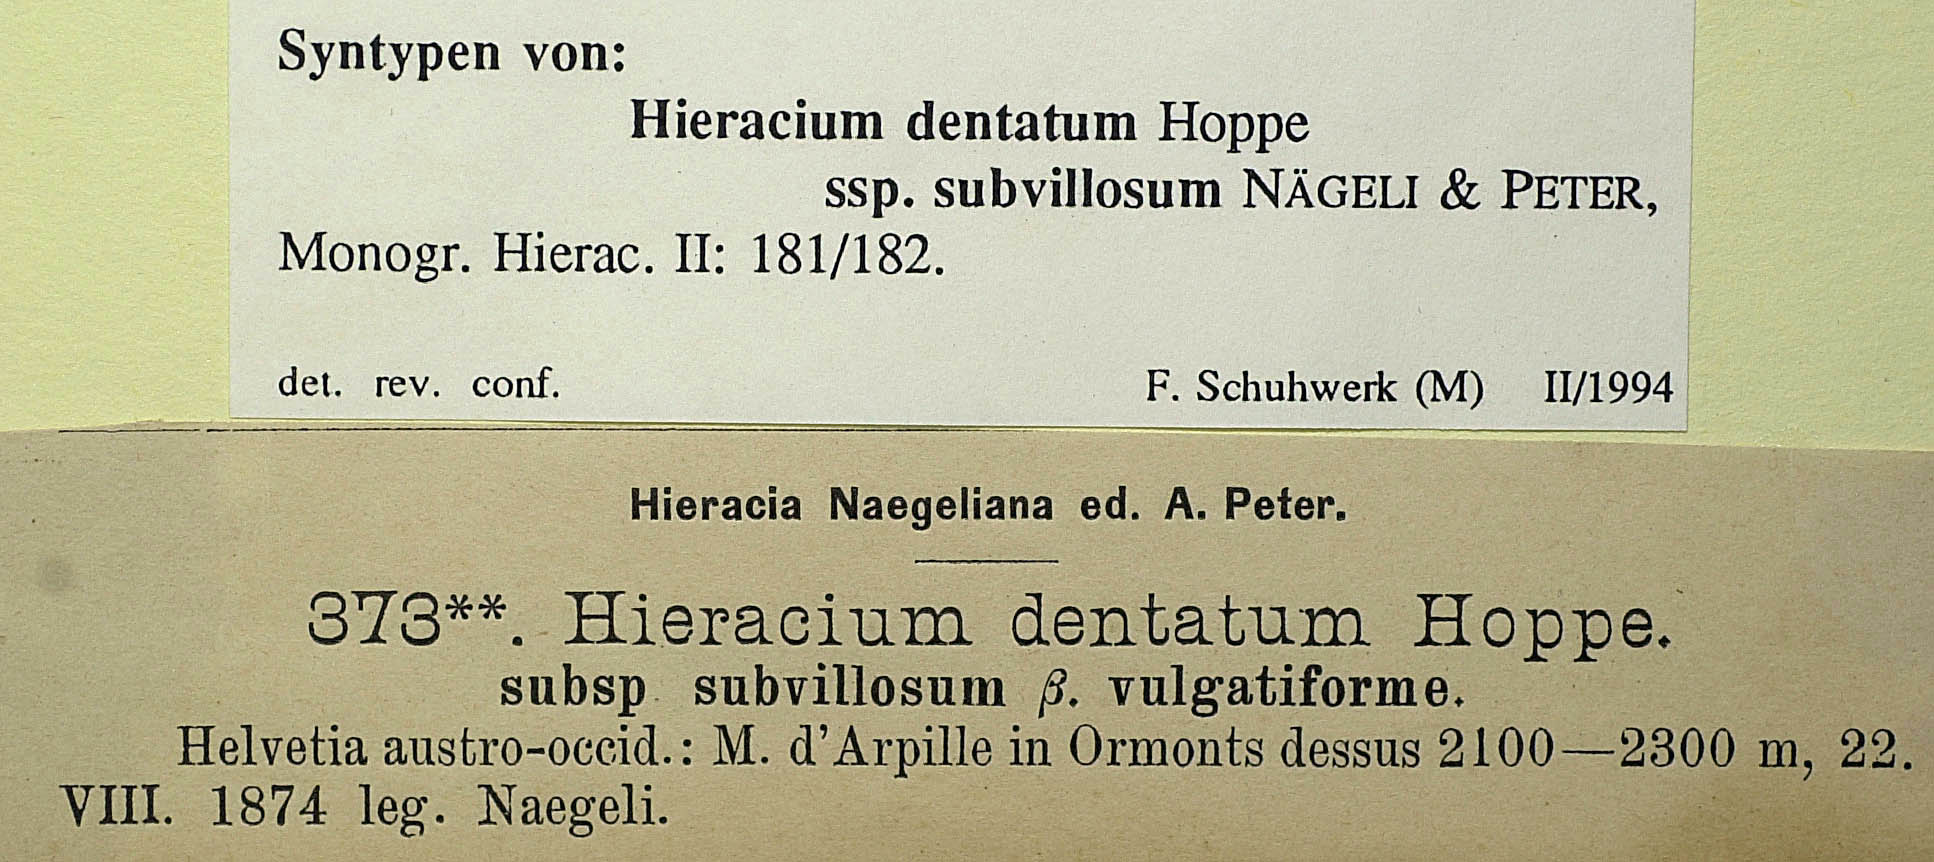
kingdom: Plantae
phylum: Tracheophyta
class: Magnoliopsida
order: Asterales
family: Asteraceae
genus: Hieracium
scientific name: Hieracium dentatum
